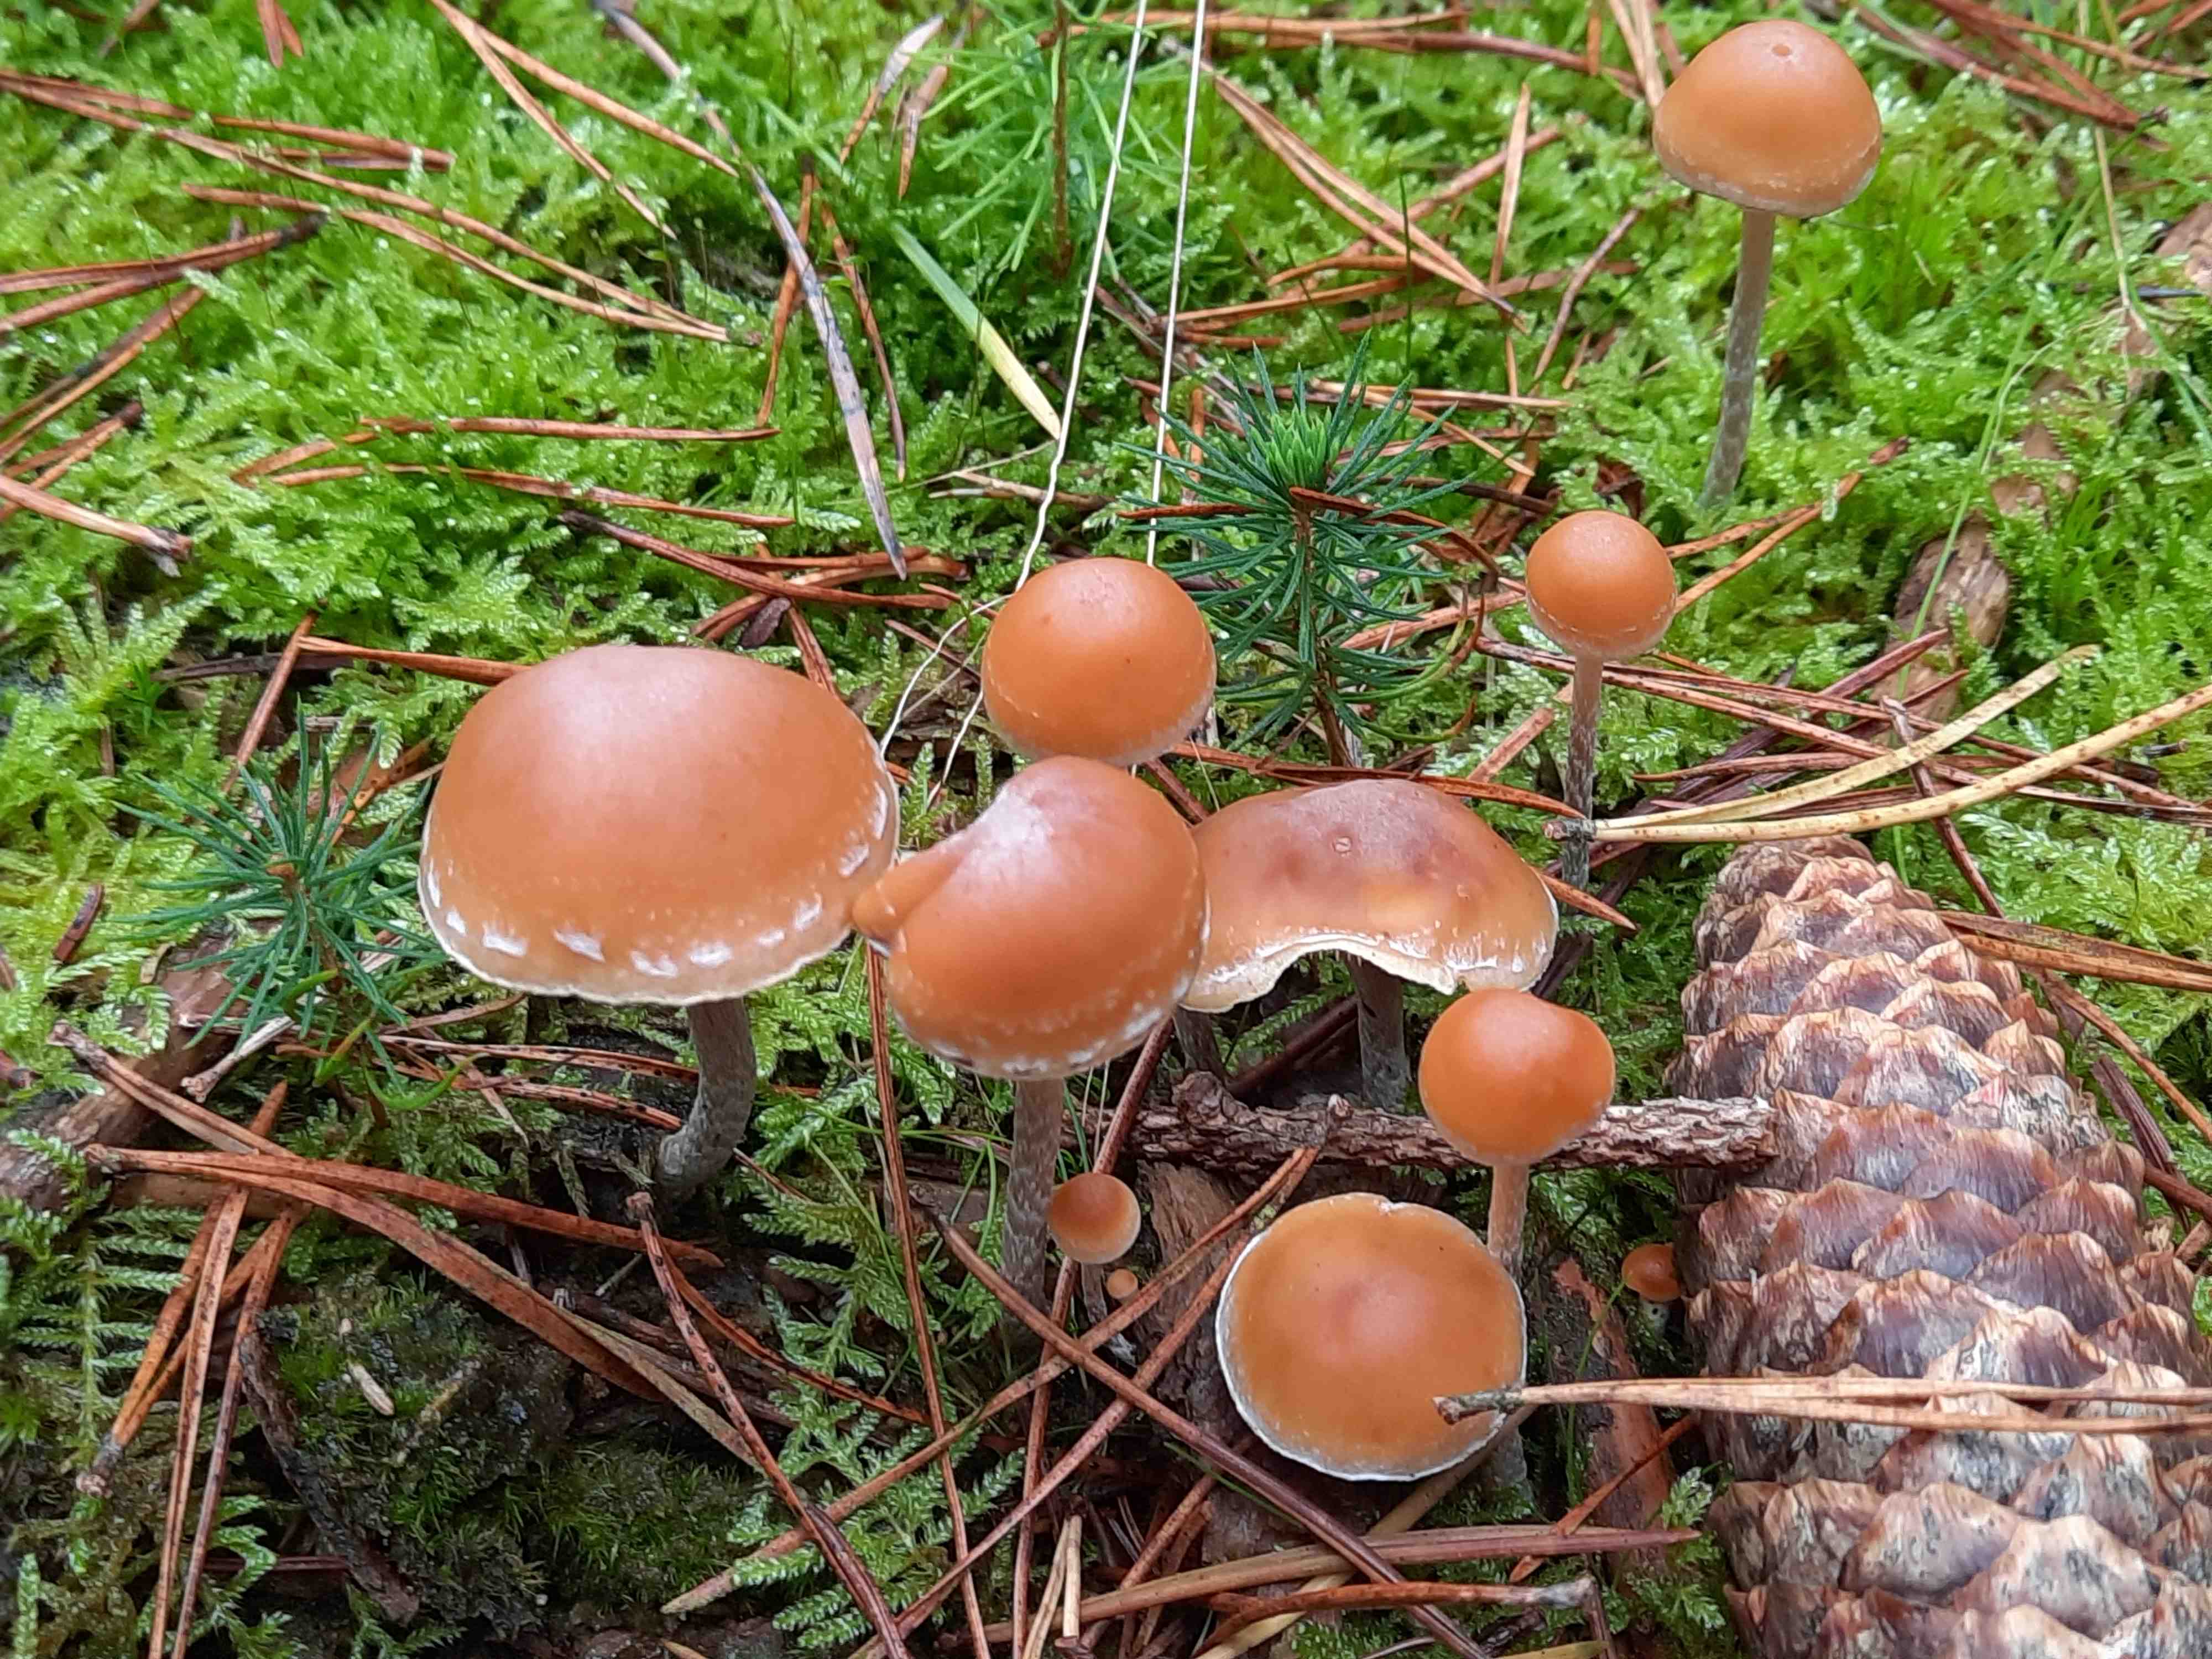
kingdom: Fungi
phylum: Basidiomycota
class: Agaricomycetes
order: Agaricales
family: Strophariaceae
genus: Hypholoma
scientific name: Hypholoma marginatum
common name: enlig svovlhat
